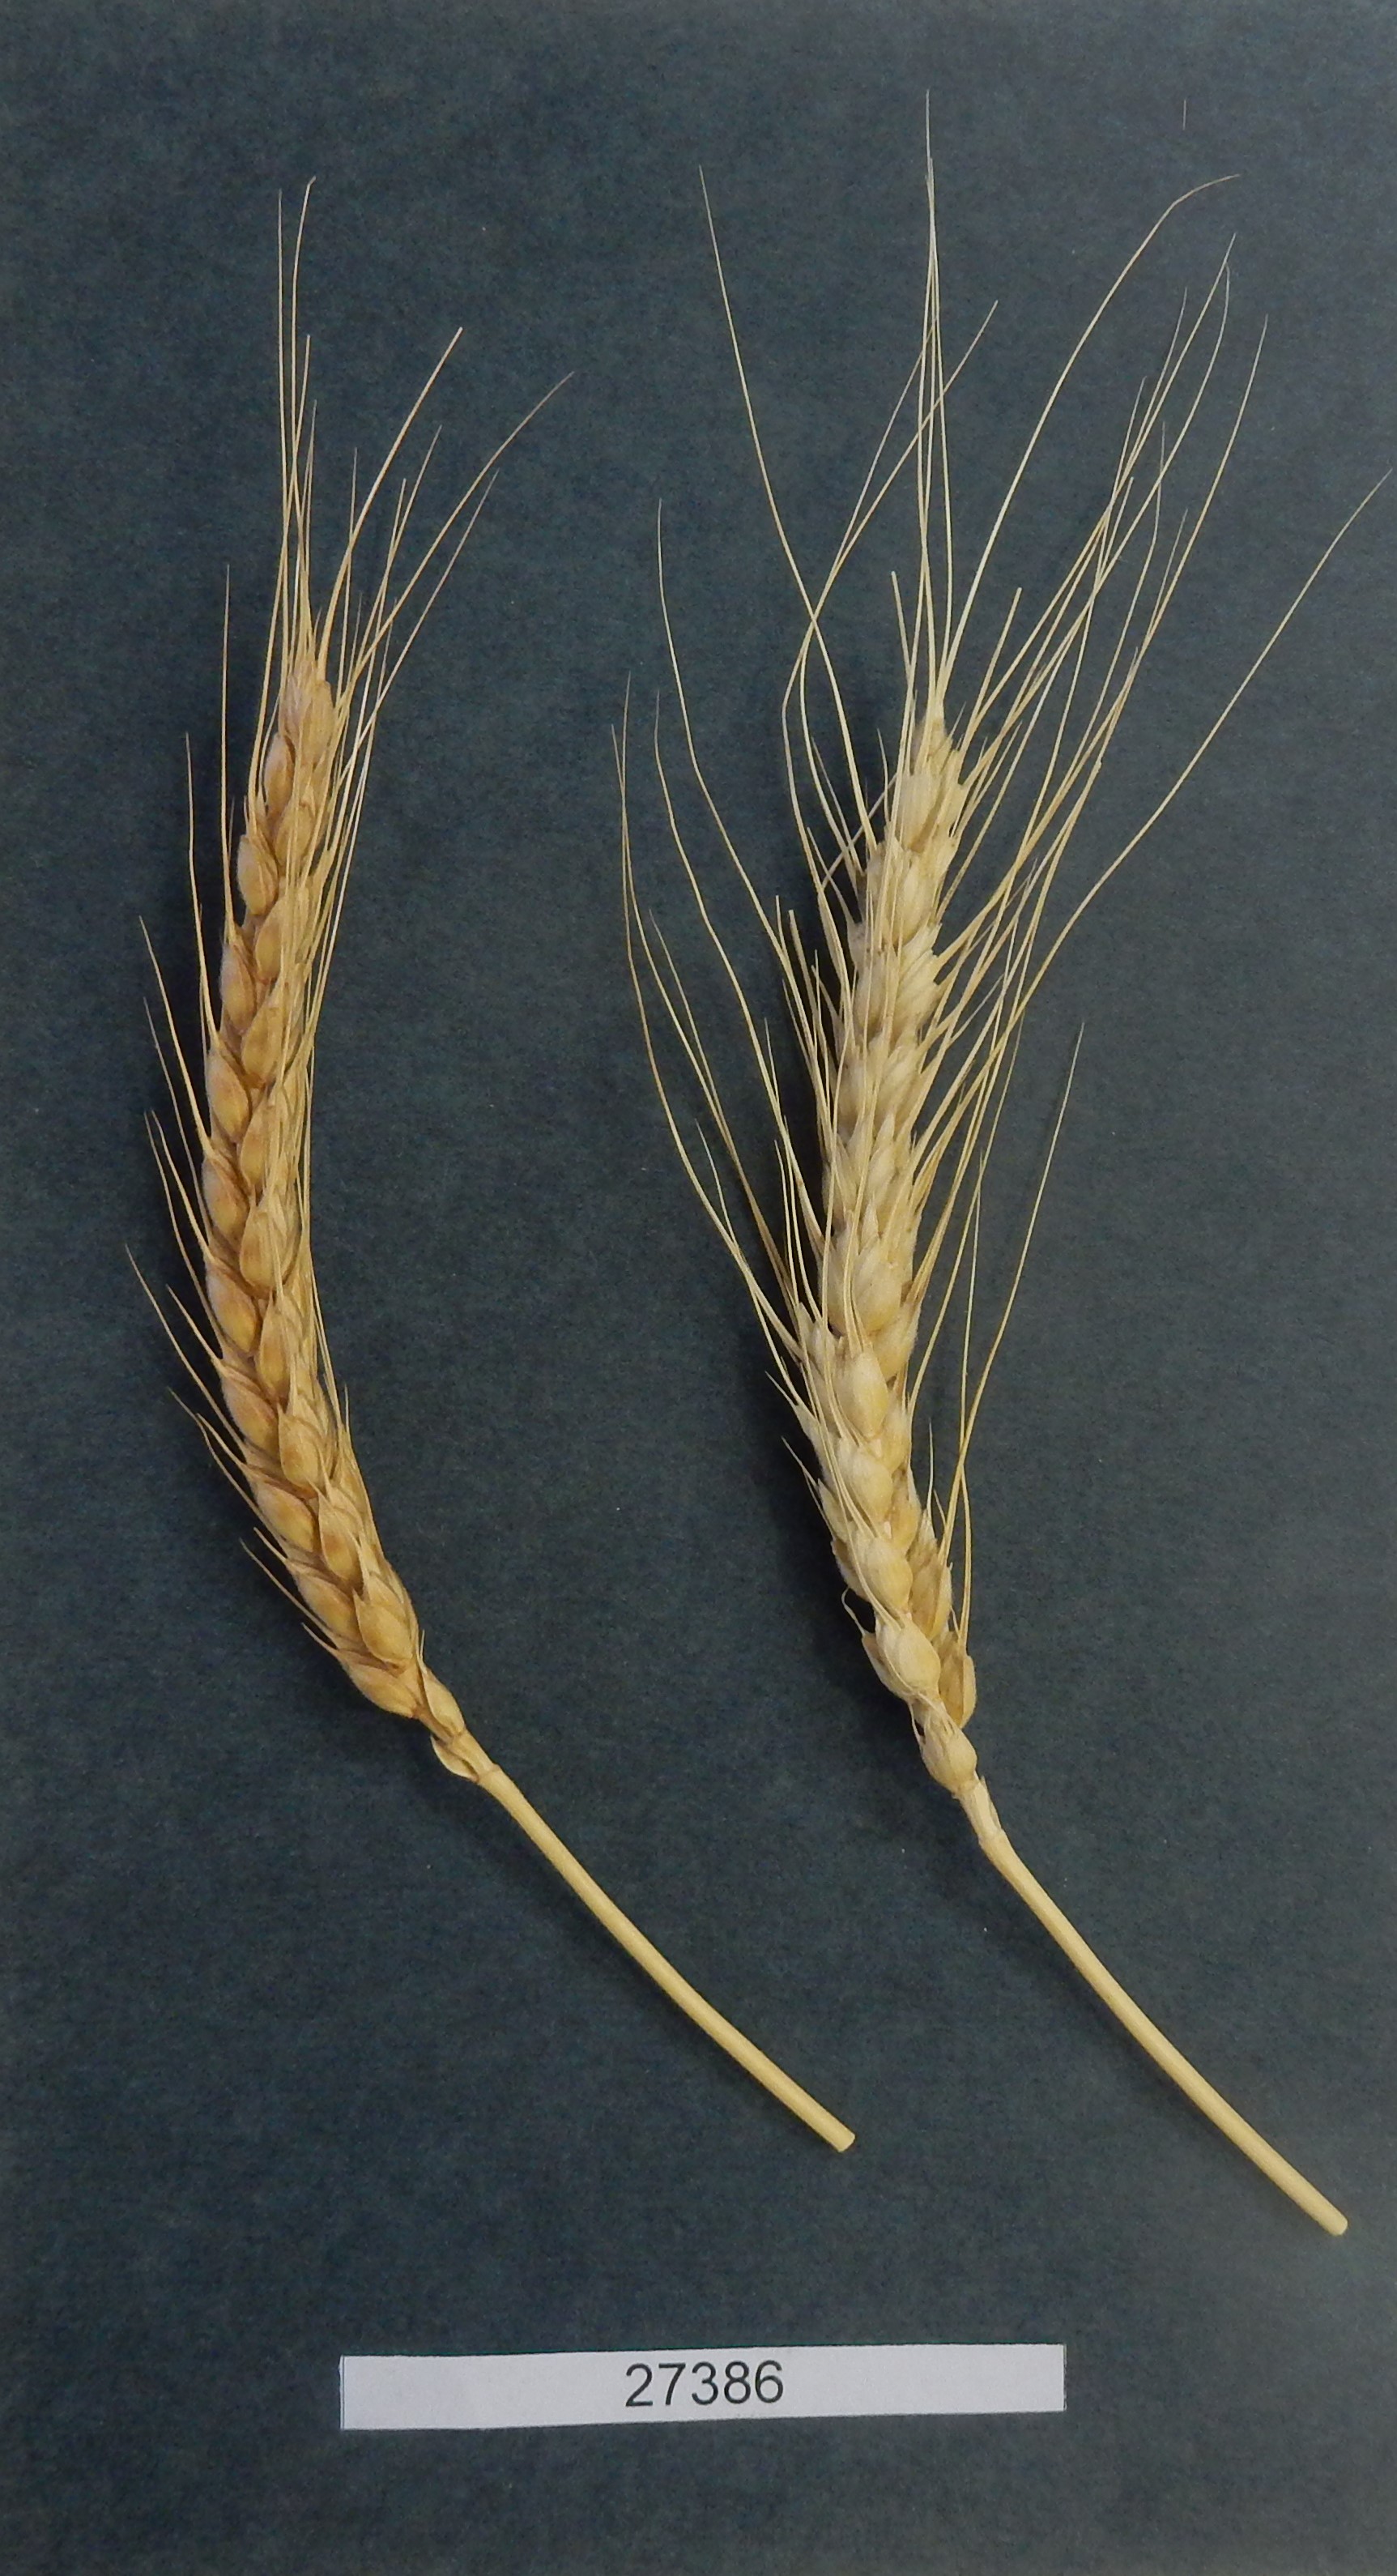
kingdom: Plantae
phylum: Tracheophyta
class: Liliopsida
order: Poales
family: Poaceae
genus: Triticum
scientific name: Triticum aestivum
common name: Common wheat
